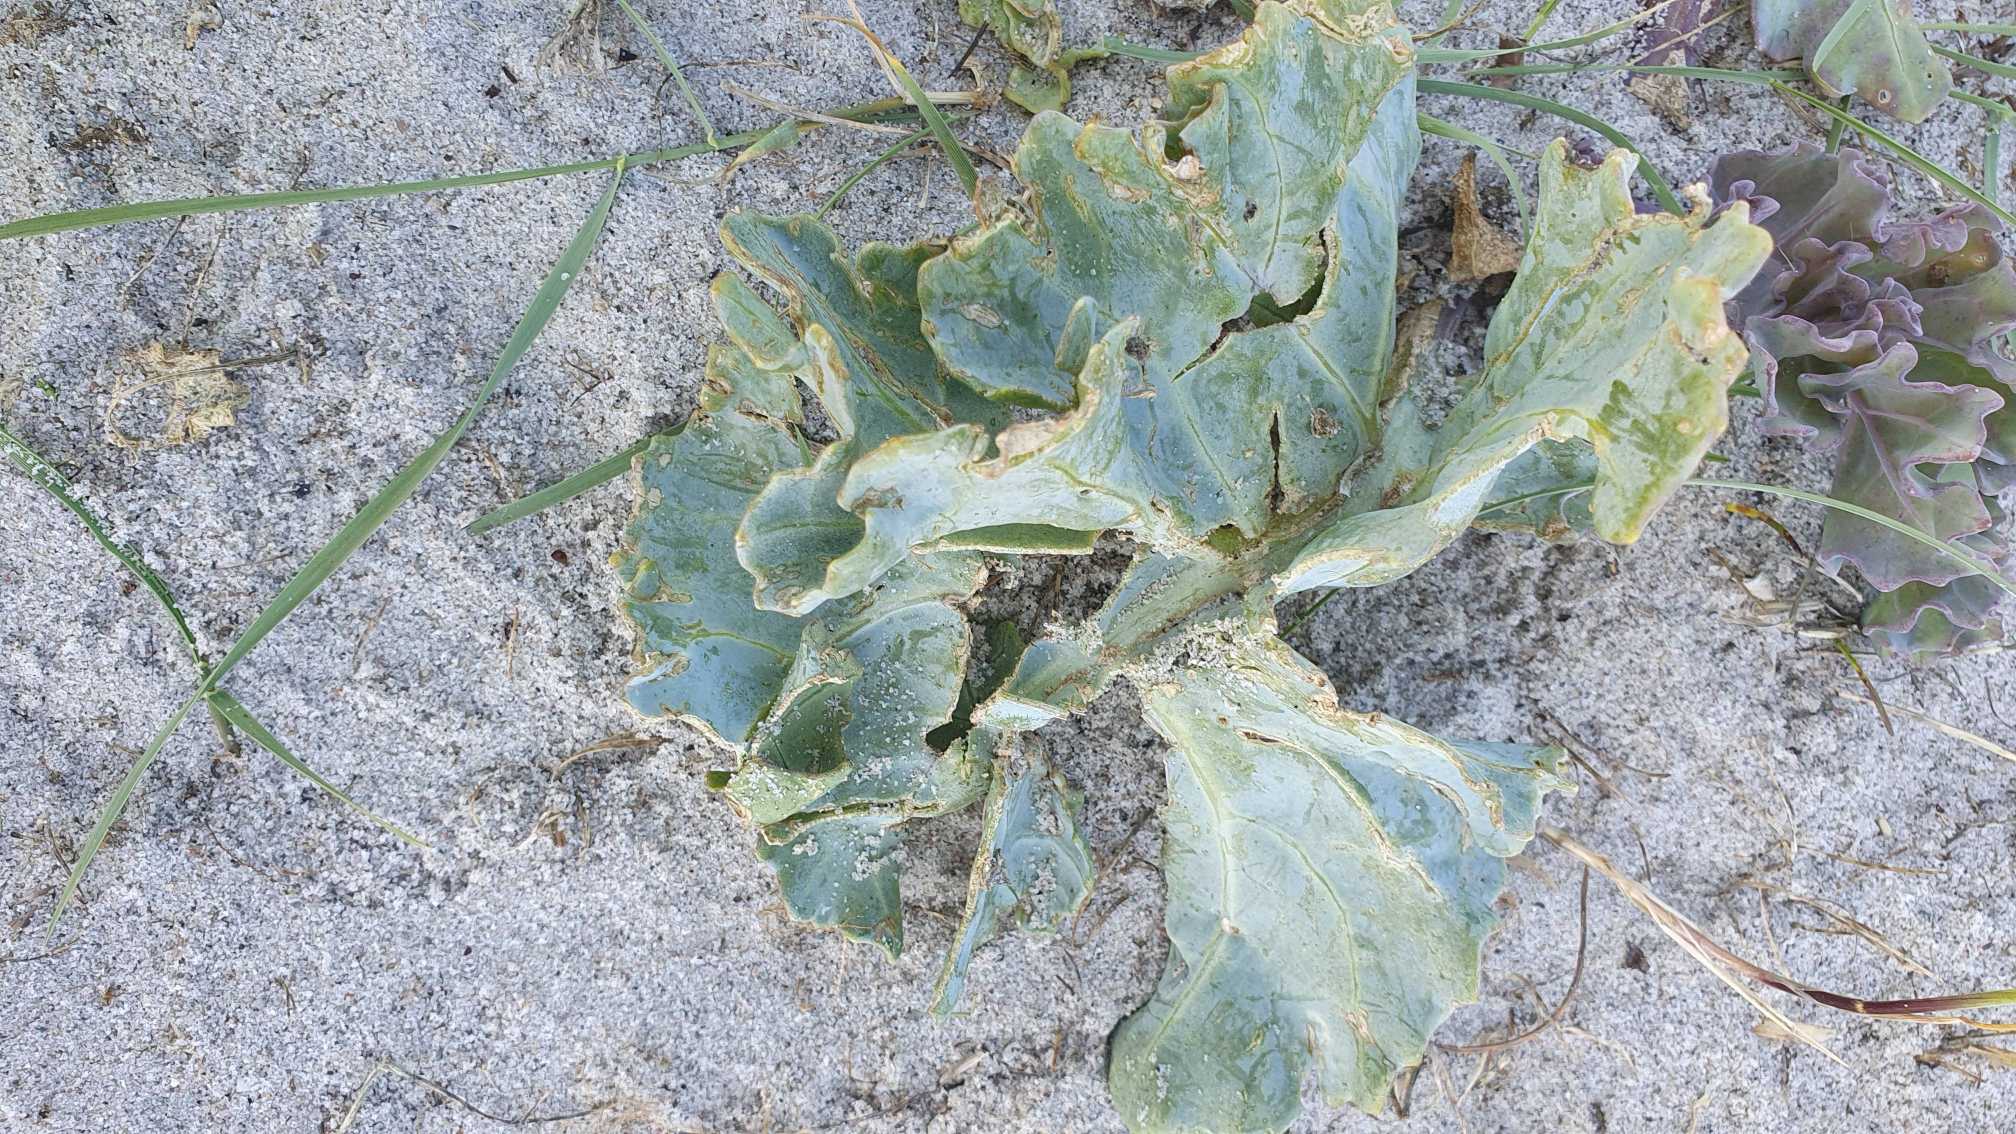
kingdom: Plantae
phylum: Tracheophyta
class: Magnoliopsida
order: Brassicales
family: Brassicaceae
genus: Crambe
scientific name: Crambe maritima
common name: Strandkål
